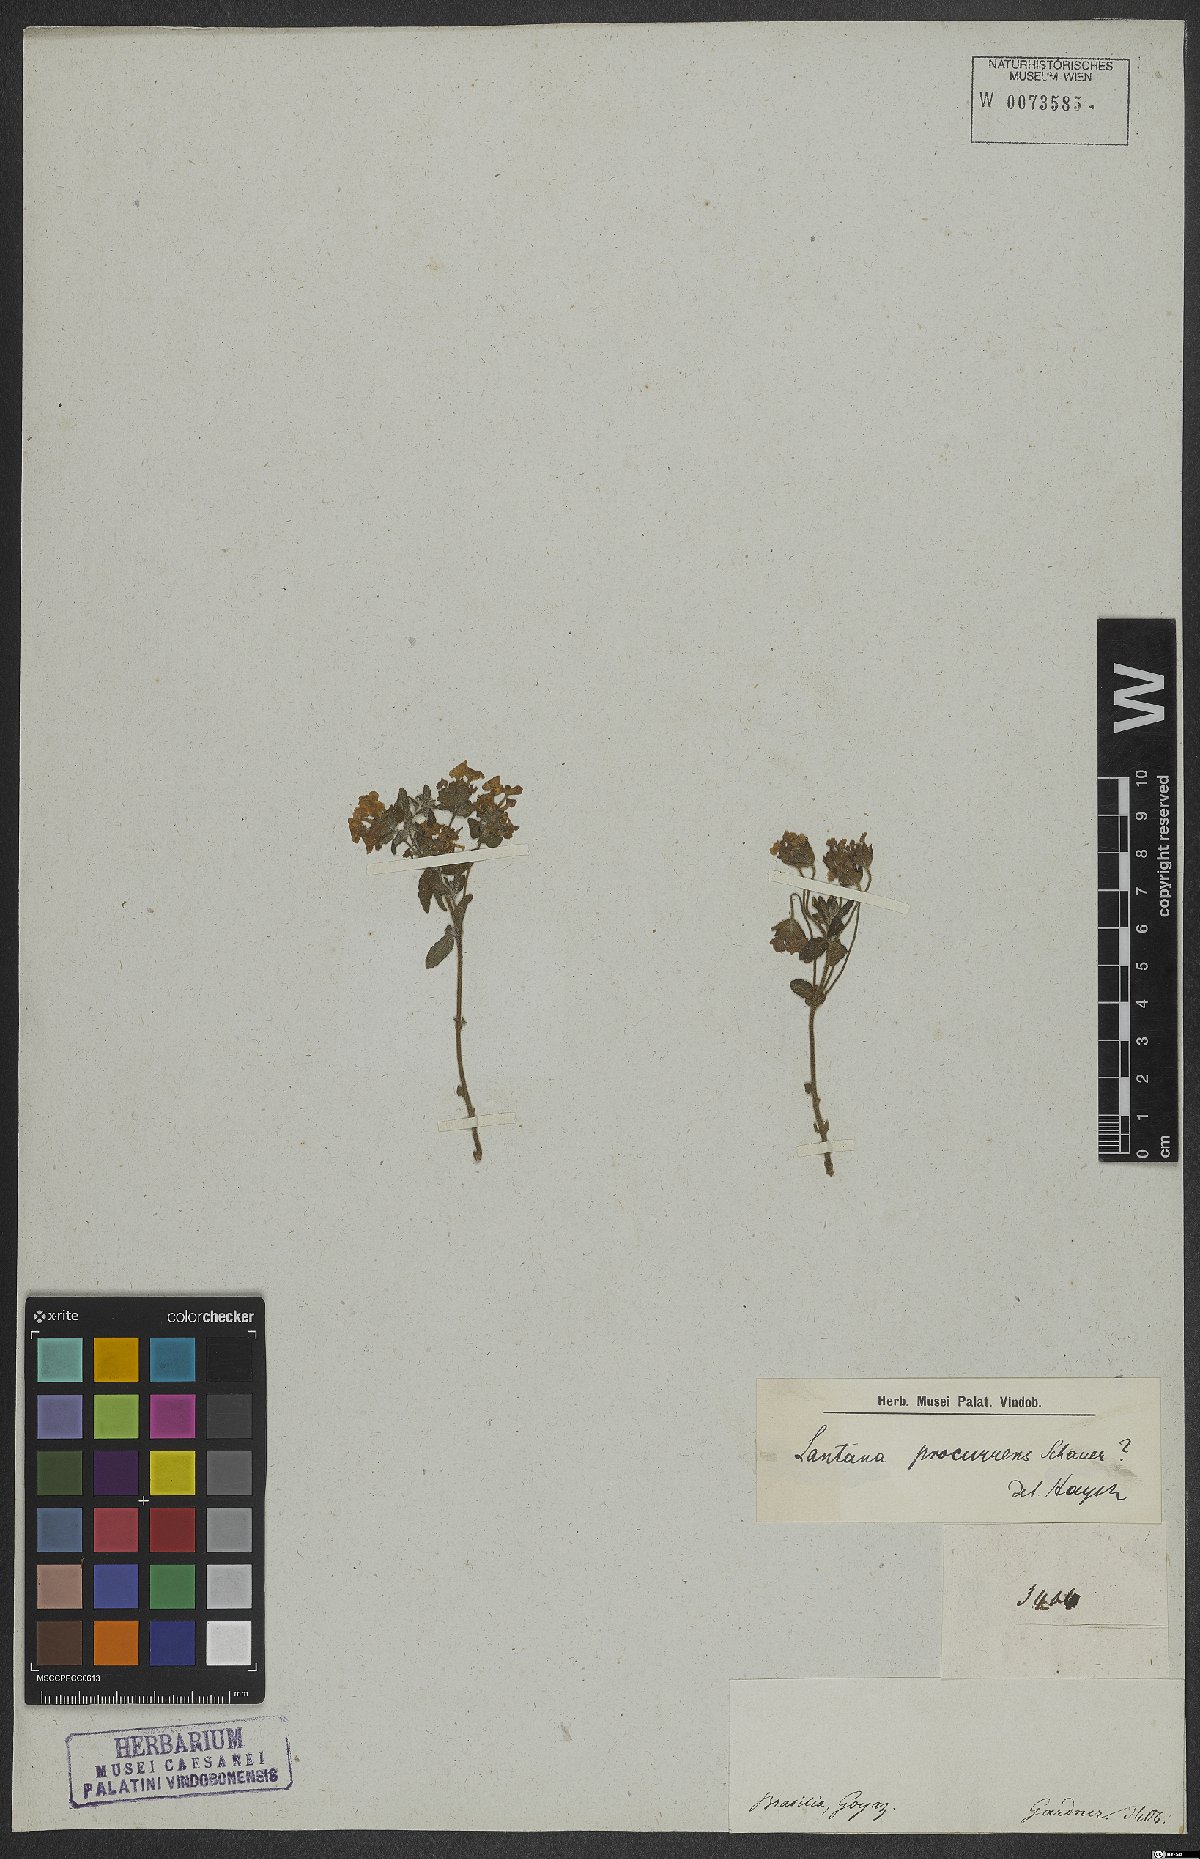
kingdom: Plantae
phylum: Tracheophyta
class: Magnoliopsida
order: Lamiales
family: Verbenaceae
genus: Lippia
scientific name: Lippia procurrens
